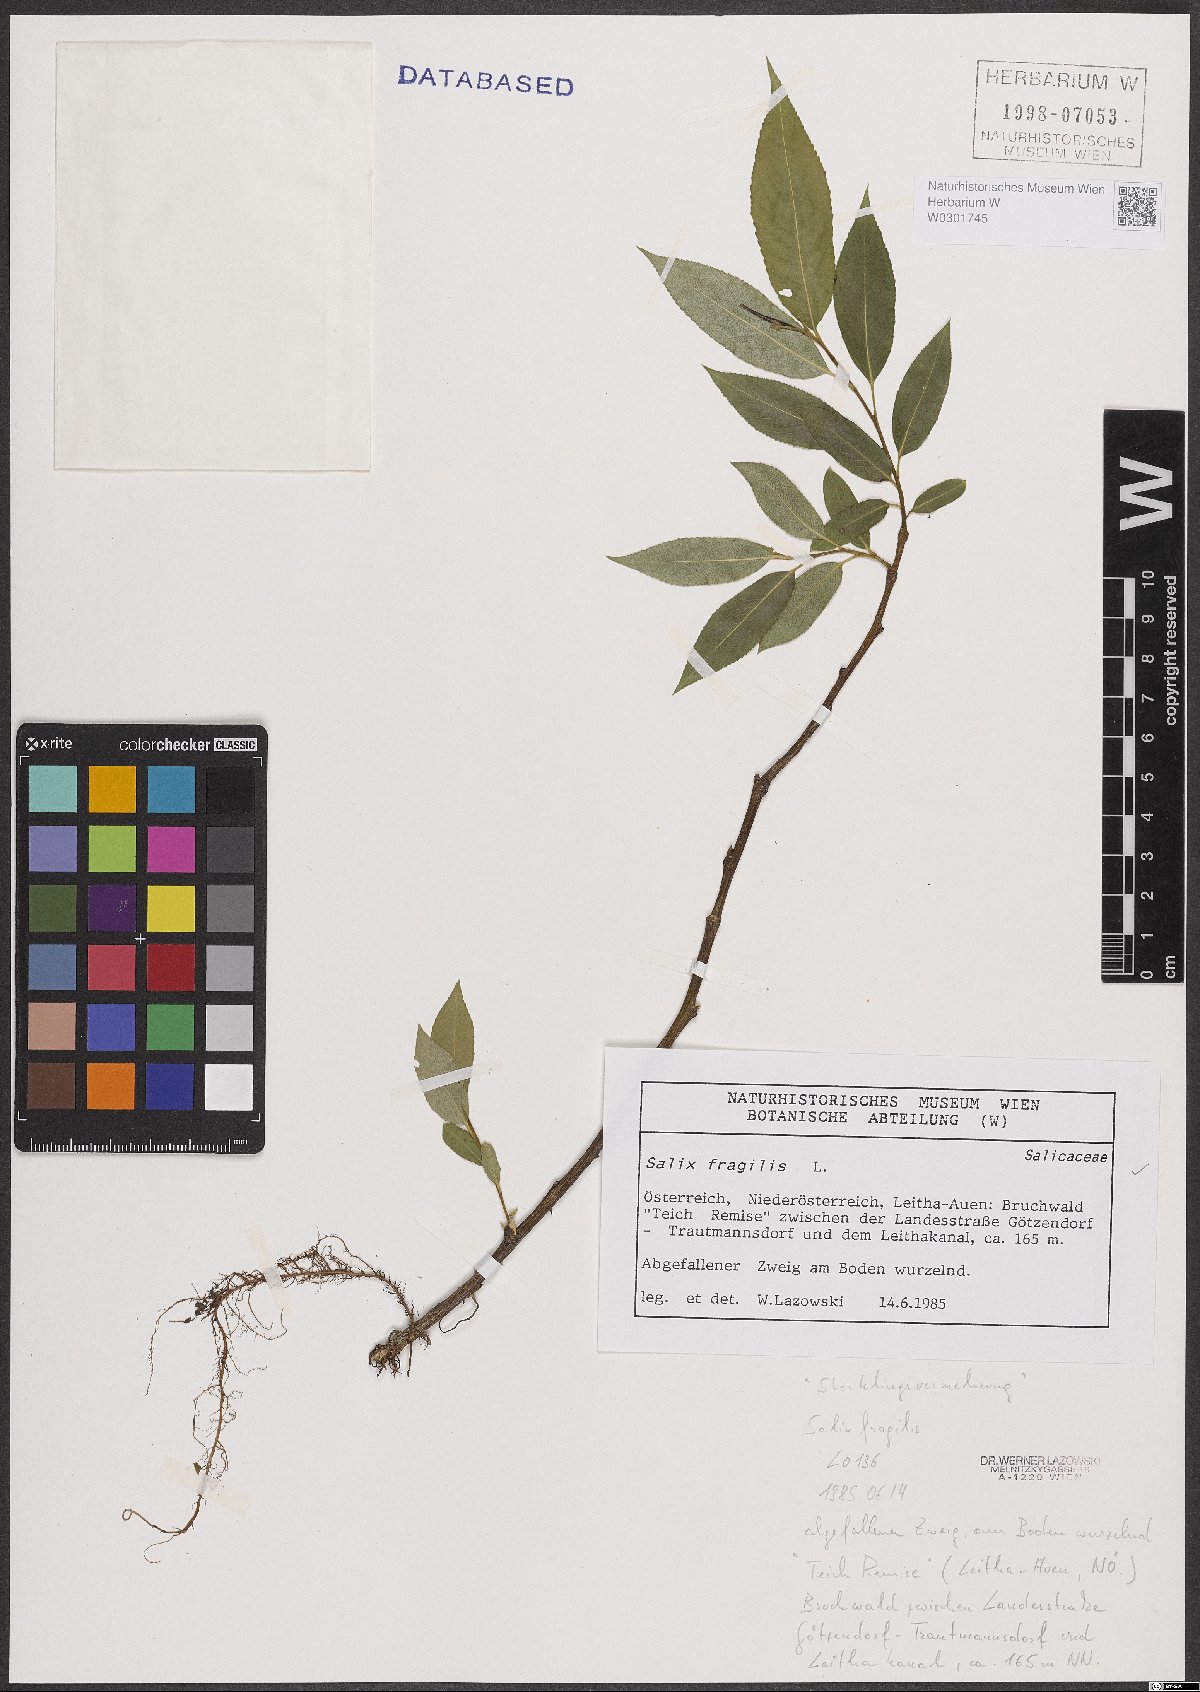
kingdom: Plantae
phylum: Tracheophyta
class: Magnoliopsida
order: Malpighiales
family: Salicaceae
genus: Salix
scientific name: Salix fragilis
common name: Crack willow
